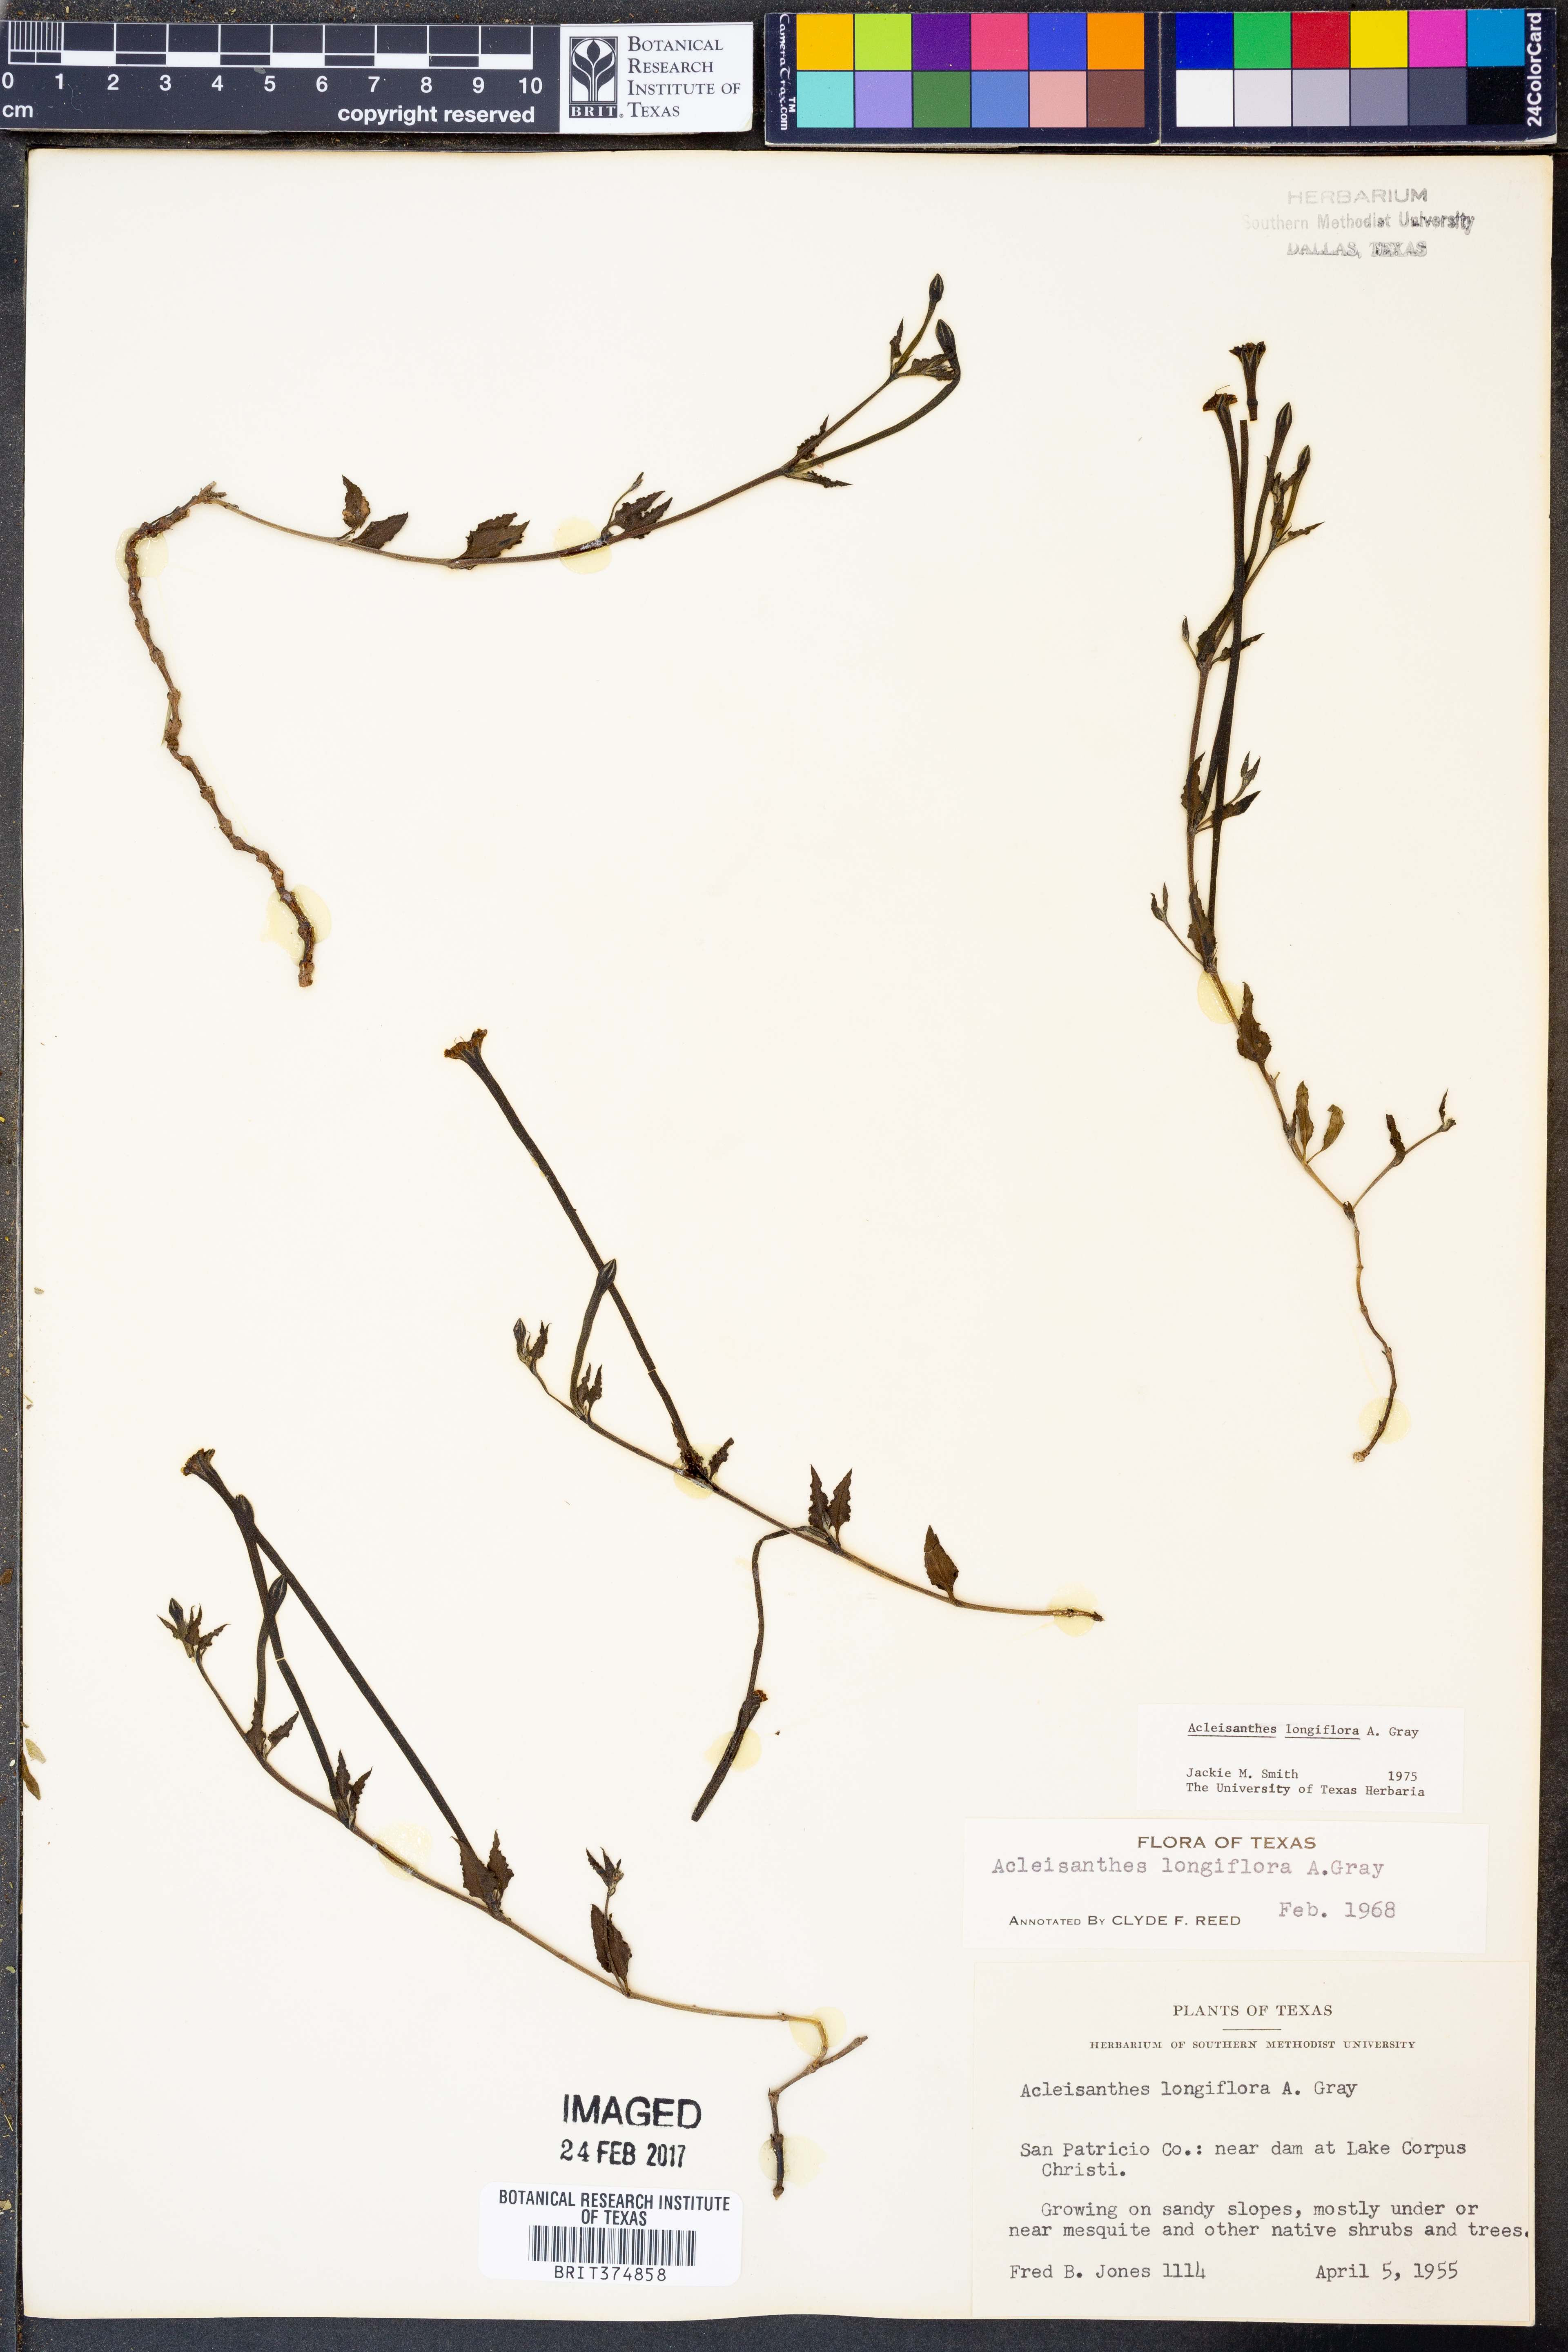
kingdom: Plantae
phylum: Tracheophyta
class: Magnoliopsida
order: Caryophyllales
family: Nyctaginaceae
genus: Acleisanthes
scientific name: Acleisanthes longiflora
